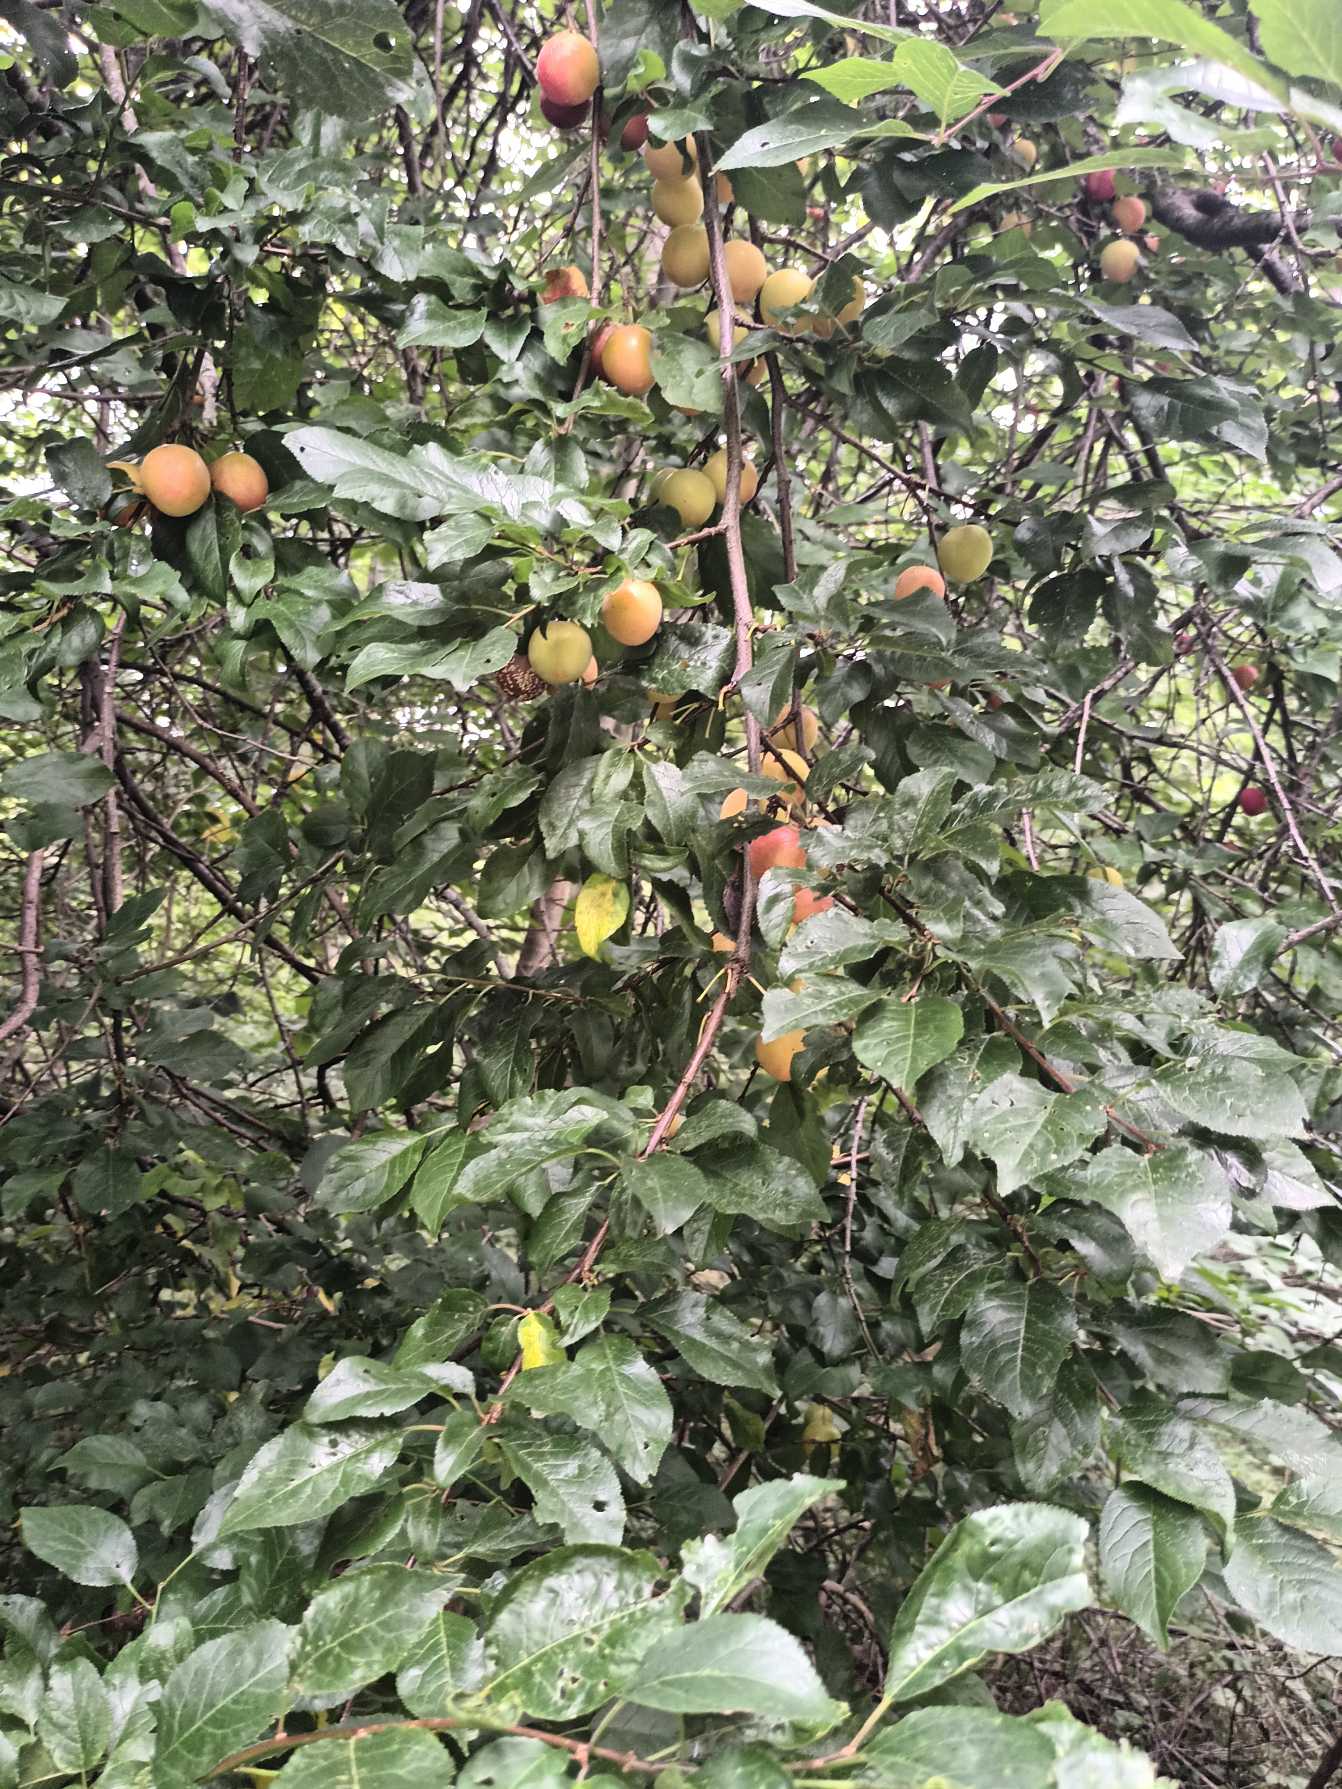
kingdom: Plantae
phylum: Tracheophyta
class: Magnoliopsida
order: Rosales
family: Rosaceae
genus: Prunus
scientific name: Prunus cerasifera
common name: Mirabel
